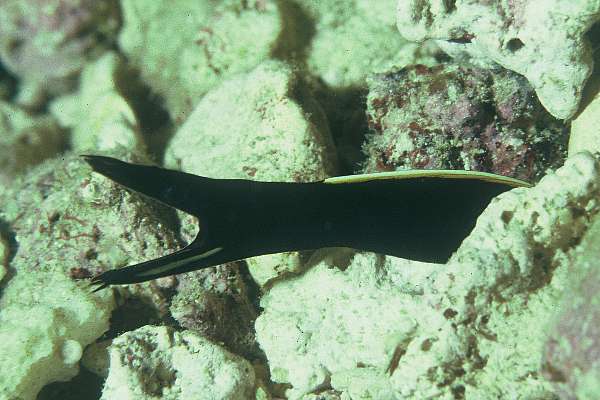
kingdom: Animalia
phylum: Chordata
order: Anguilliformes
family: Muraenidae
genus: Rhinomuraena
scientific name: Rhinomuraena quaesita
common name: Ribbon eel
